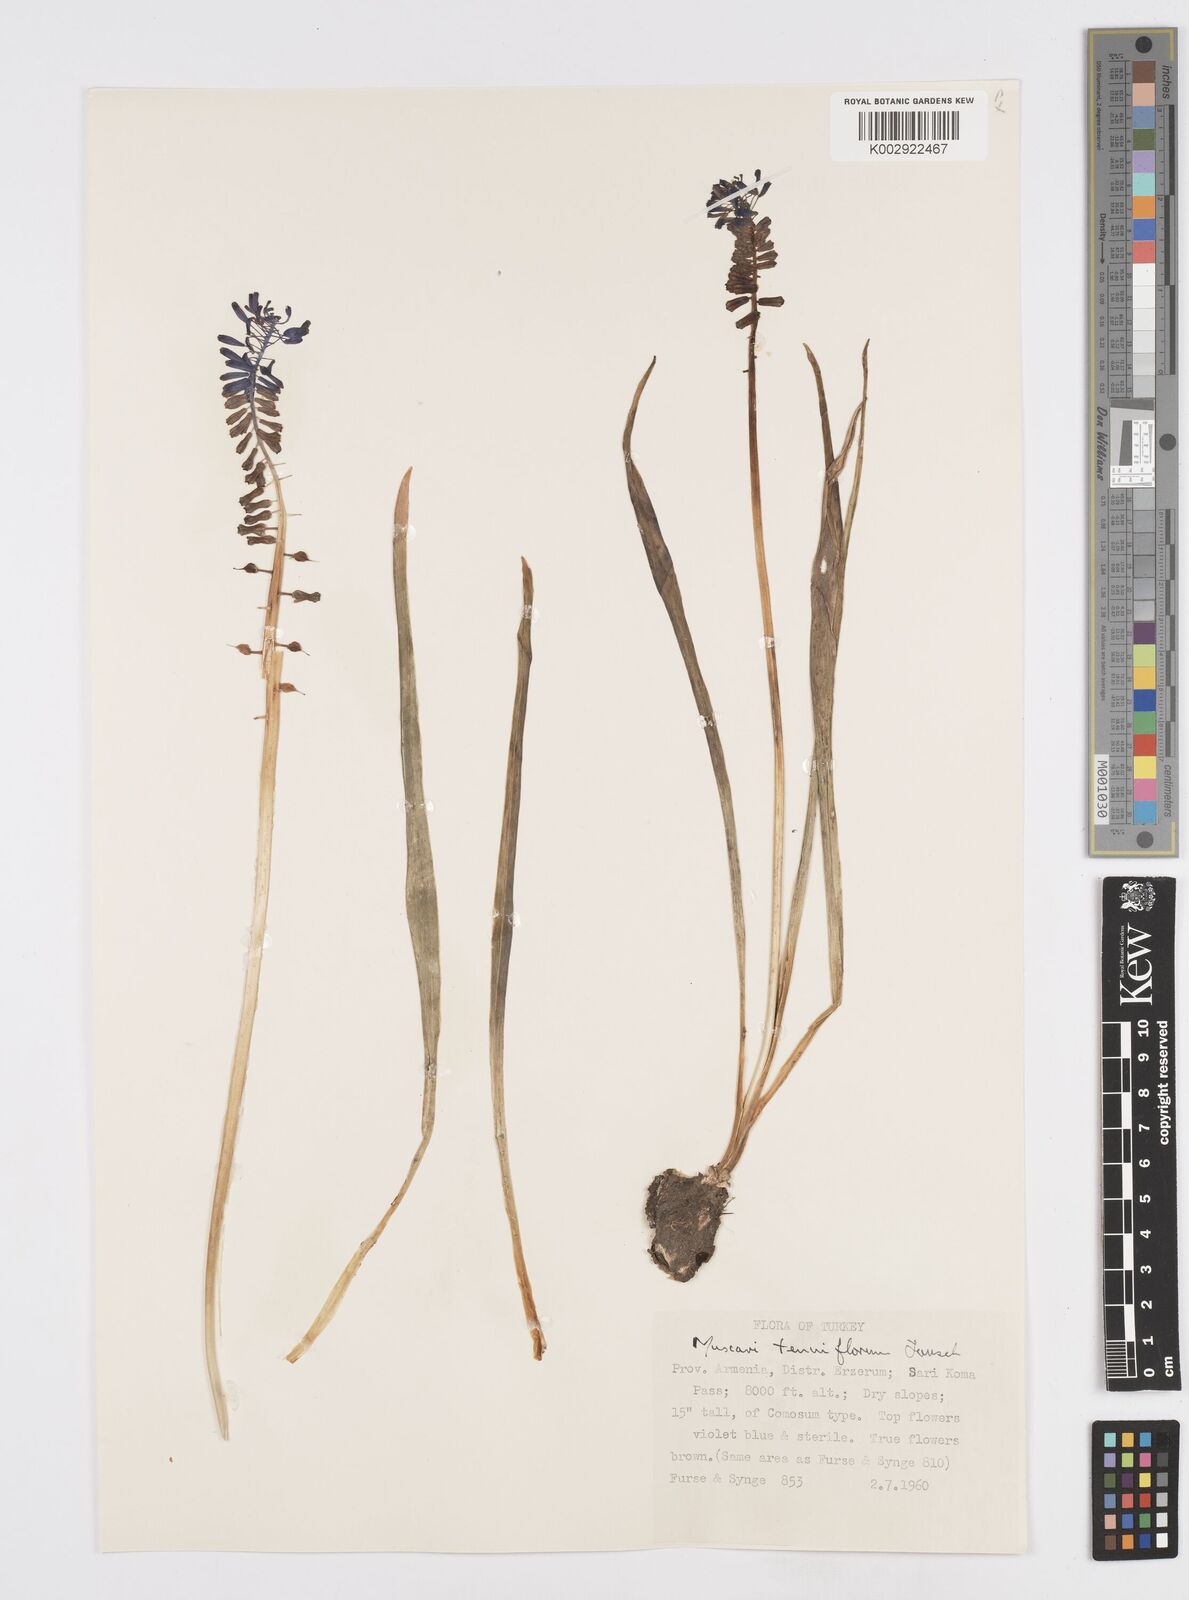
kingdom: Plantae
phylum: Tracheophyta
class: Liliopsida
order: Asparagales
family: Asparagaceae
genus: Muscari
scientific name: Muscari tenuiflorum
